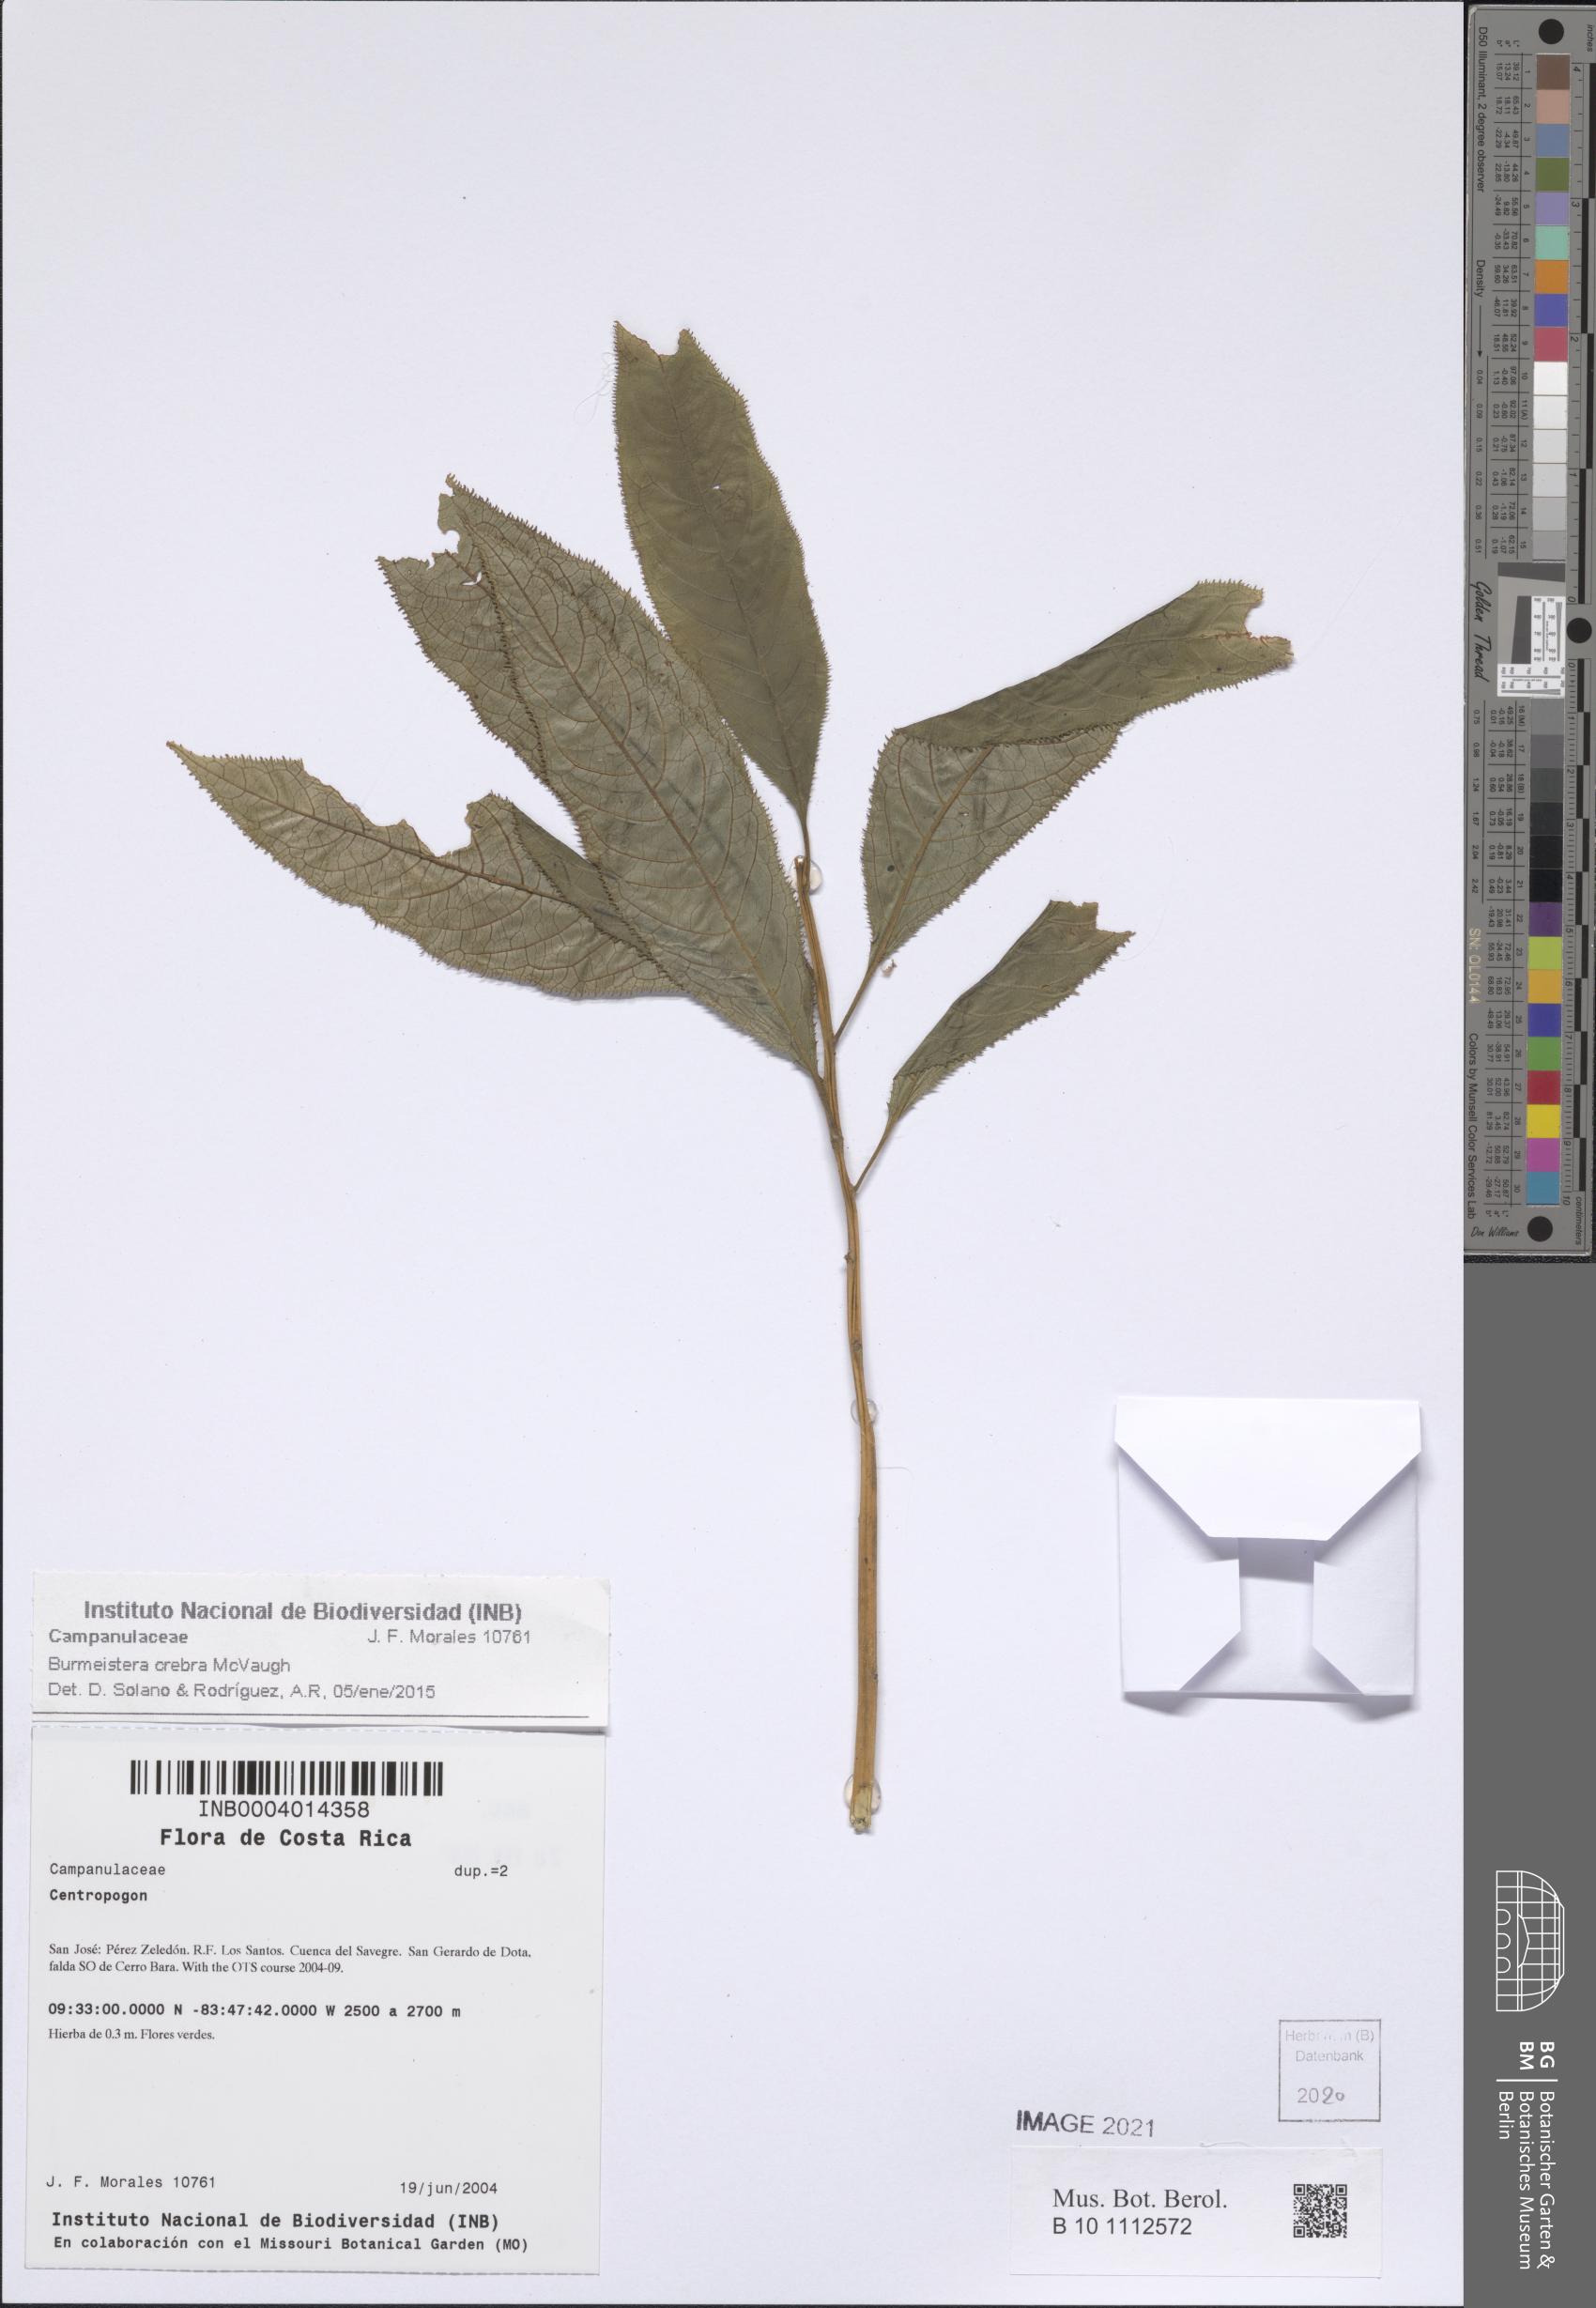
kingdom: Plantae
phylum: Tracheophyta
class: Magnoliopsida
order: Asterales
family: Campanulaceae
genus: Burmeistera
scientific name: Burmeistera crebra
